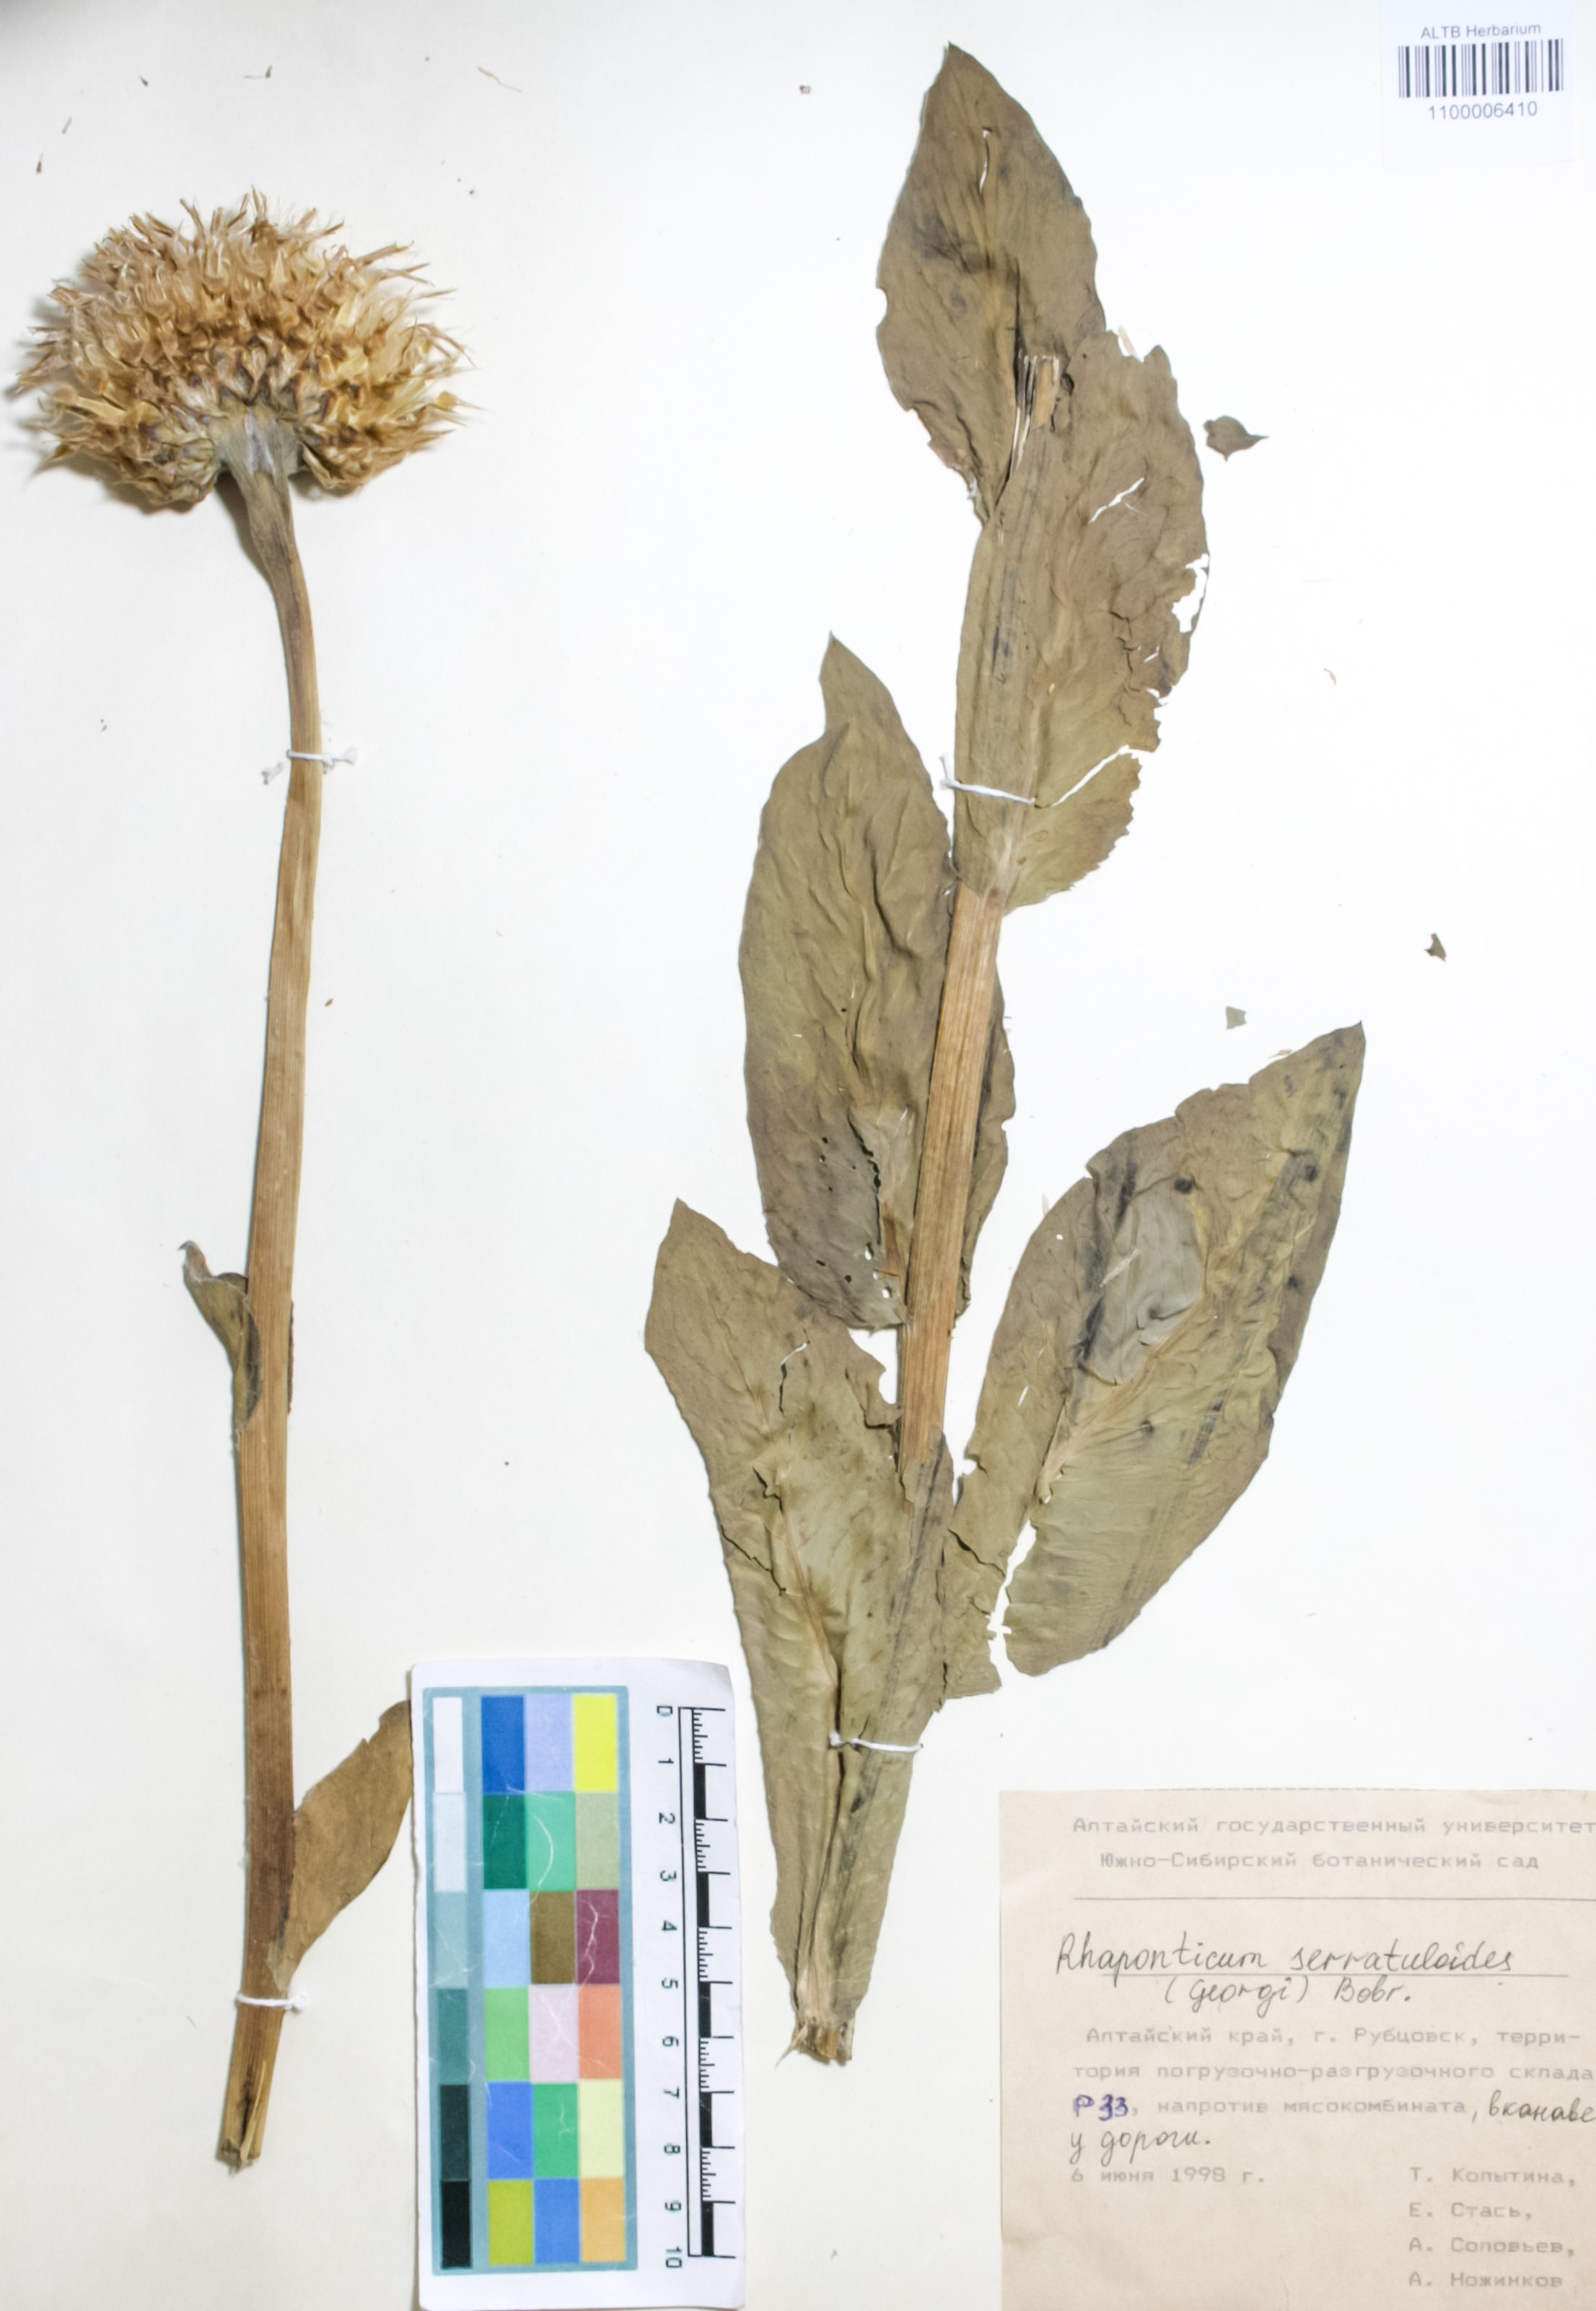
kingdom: Plantae
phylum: Tracheophyta
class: Magnoliopsida
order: Asterales
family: Asteraceae
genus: Leuzea
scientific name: Leuzea altaica
